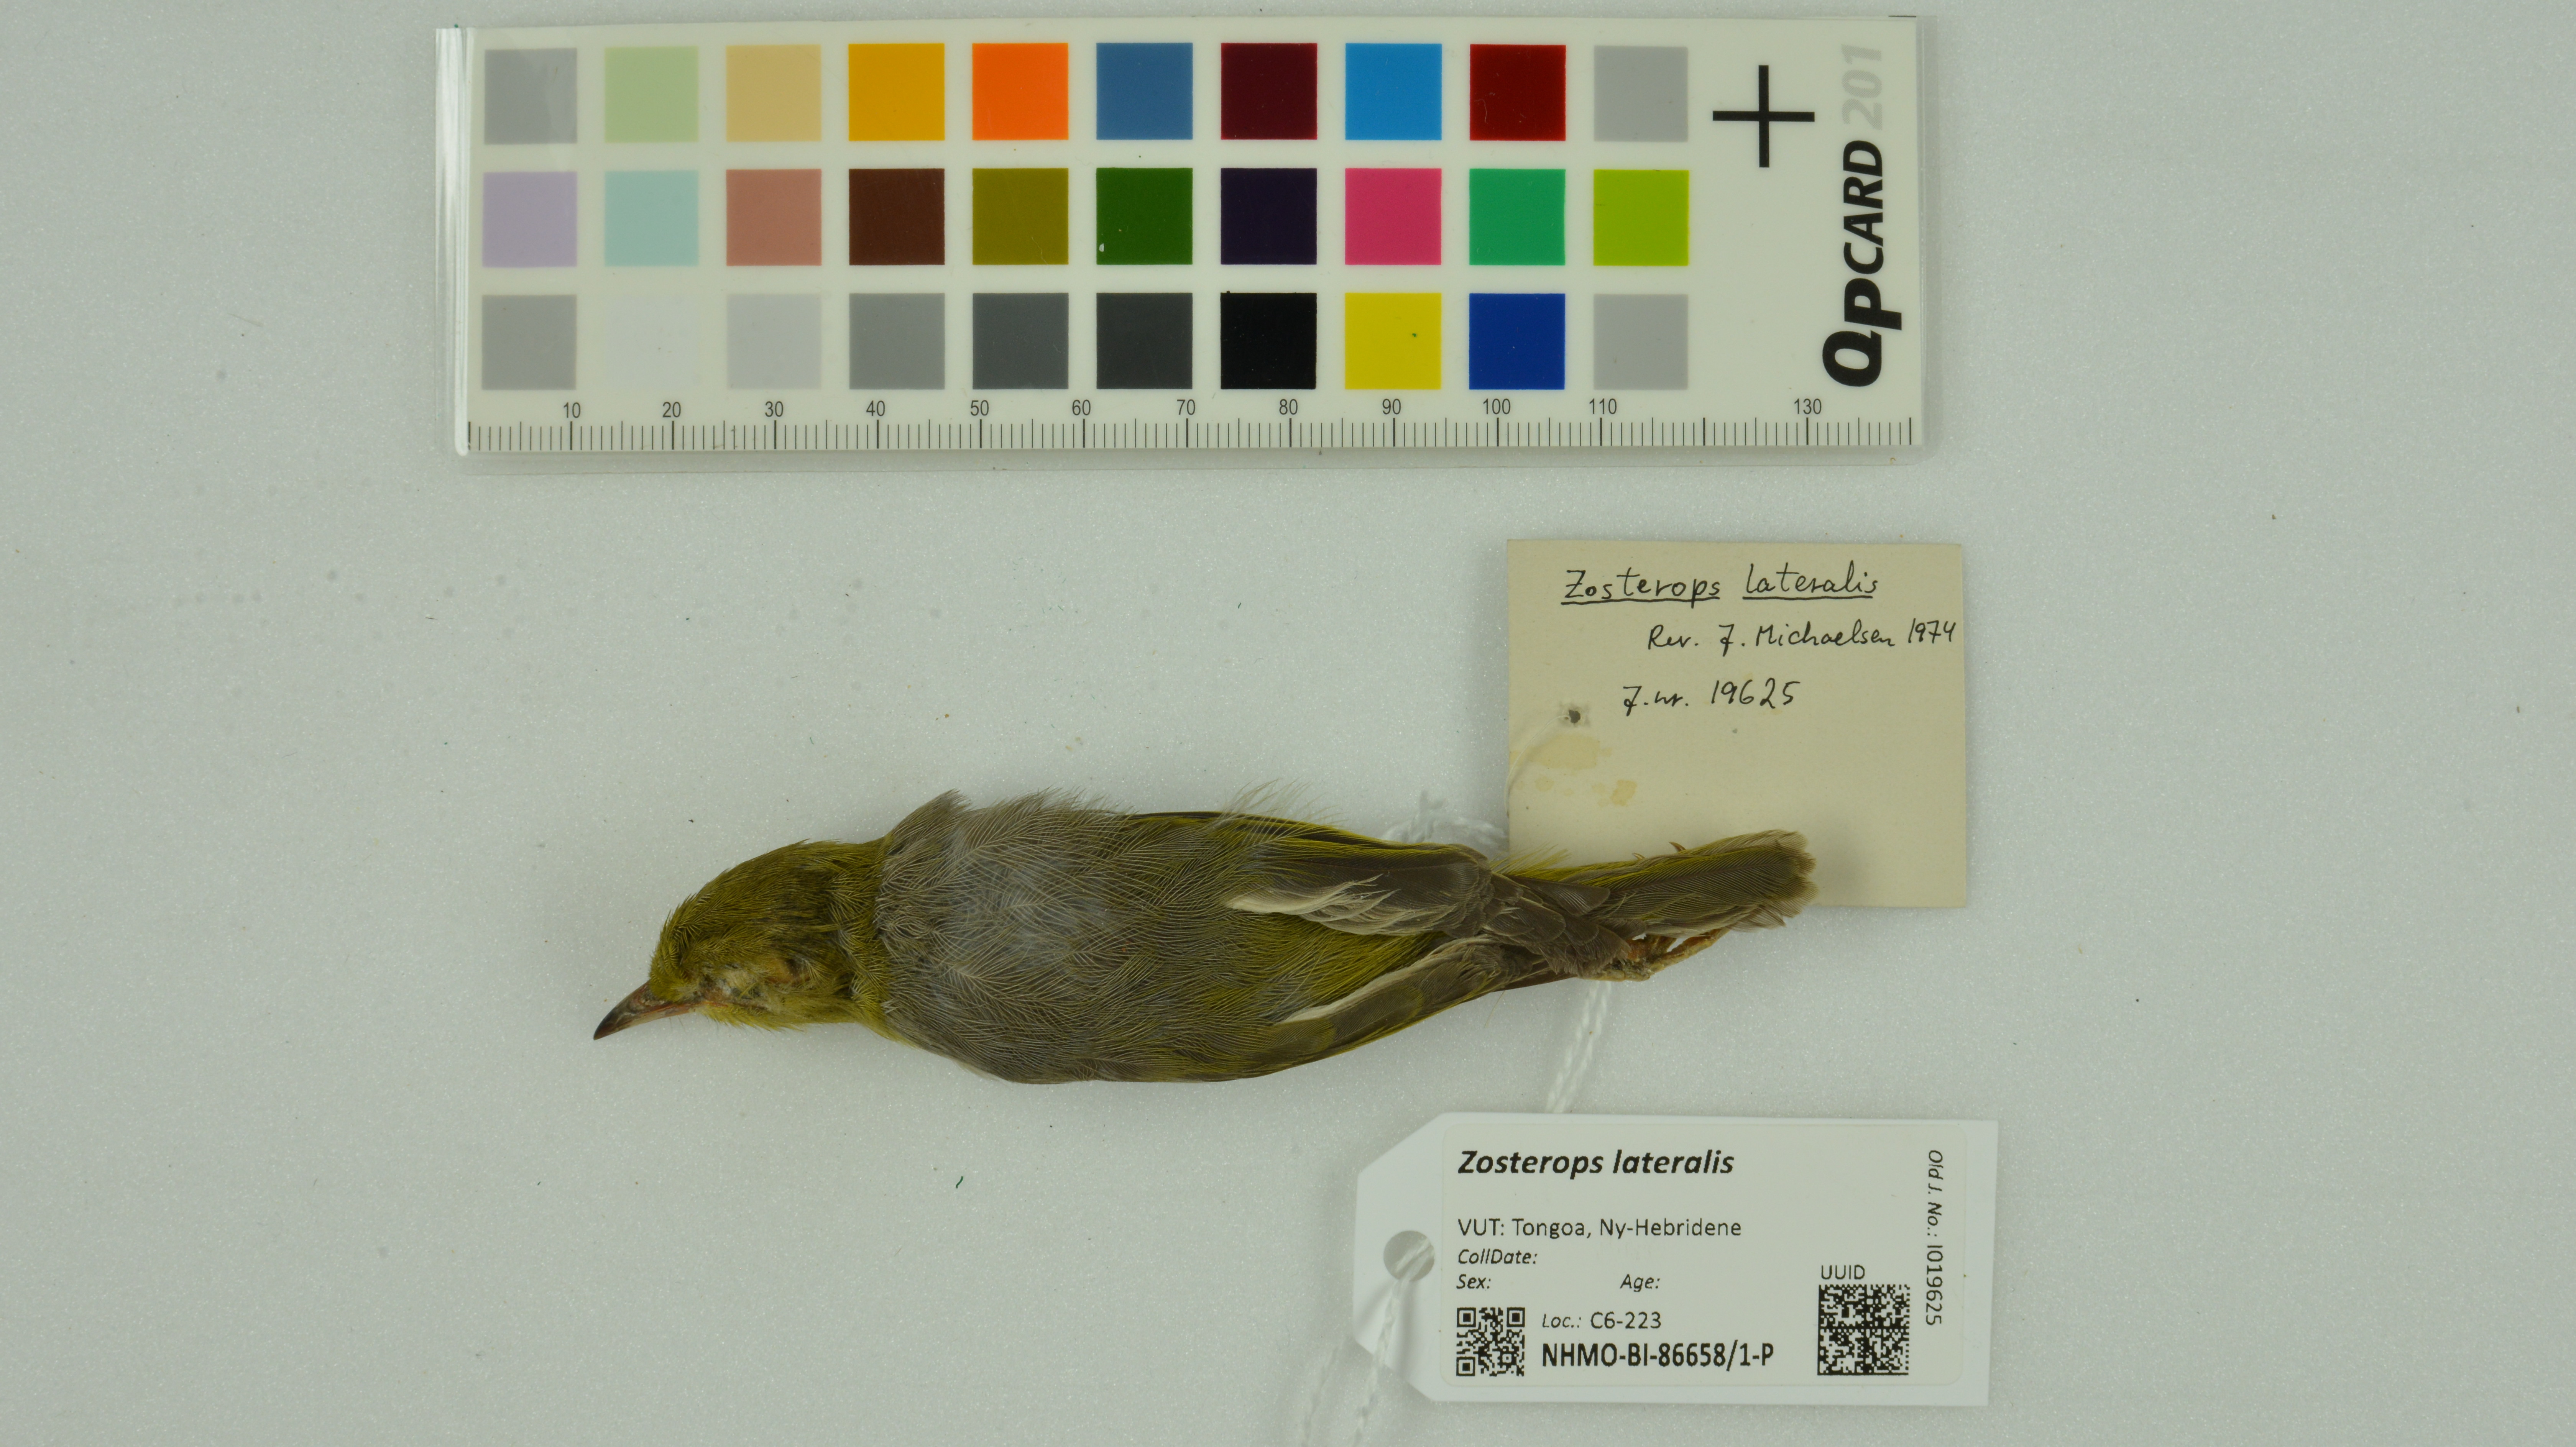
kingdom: Animalia
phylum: Chordata
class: Aves
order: Passeriformes
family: Zosteropidae
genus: Zosterops
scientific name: Zosterops lateralis
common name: Silvereye
